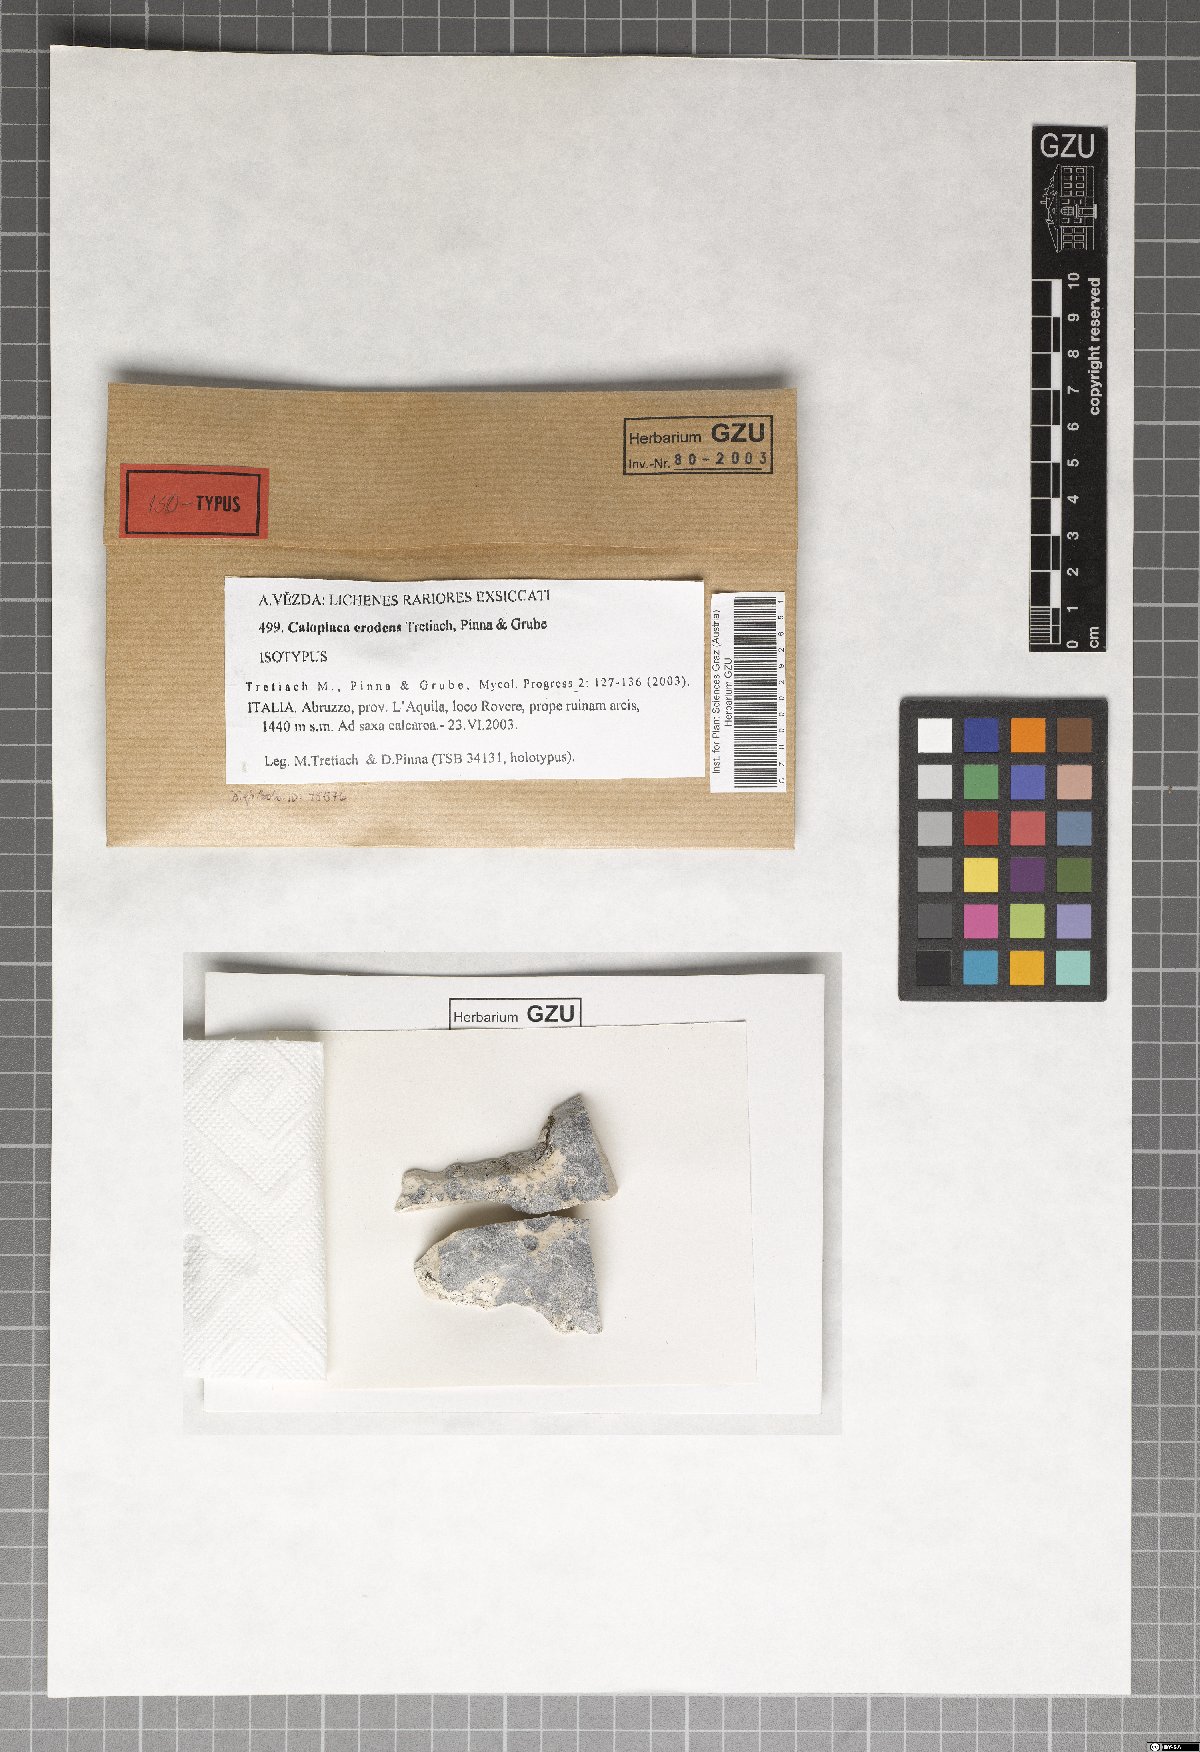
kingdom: Fungi
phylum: Ascomycota
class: Lecanoromycetes
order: Teloschistales
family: Teloschistaceae
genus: Pyrenodesmia
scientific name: Pyrenodesmia erodens
